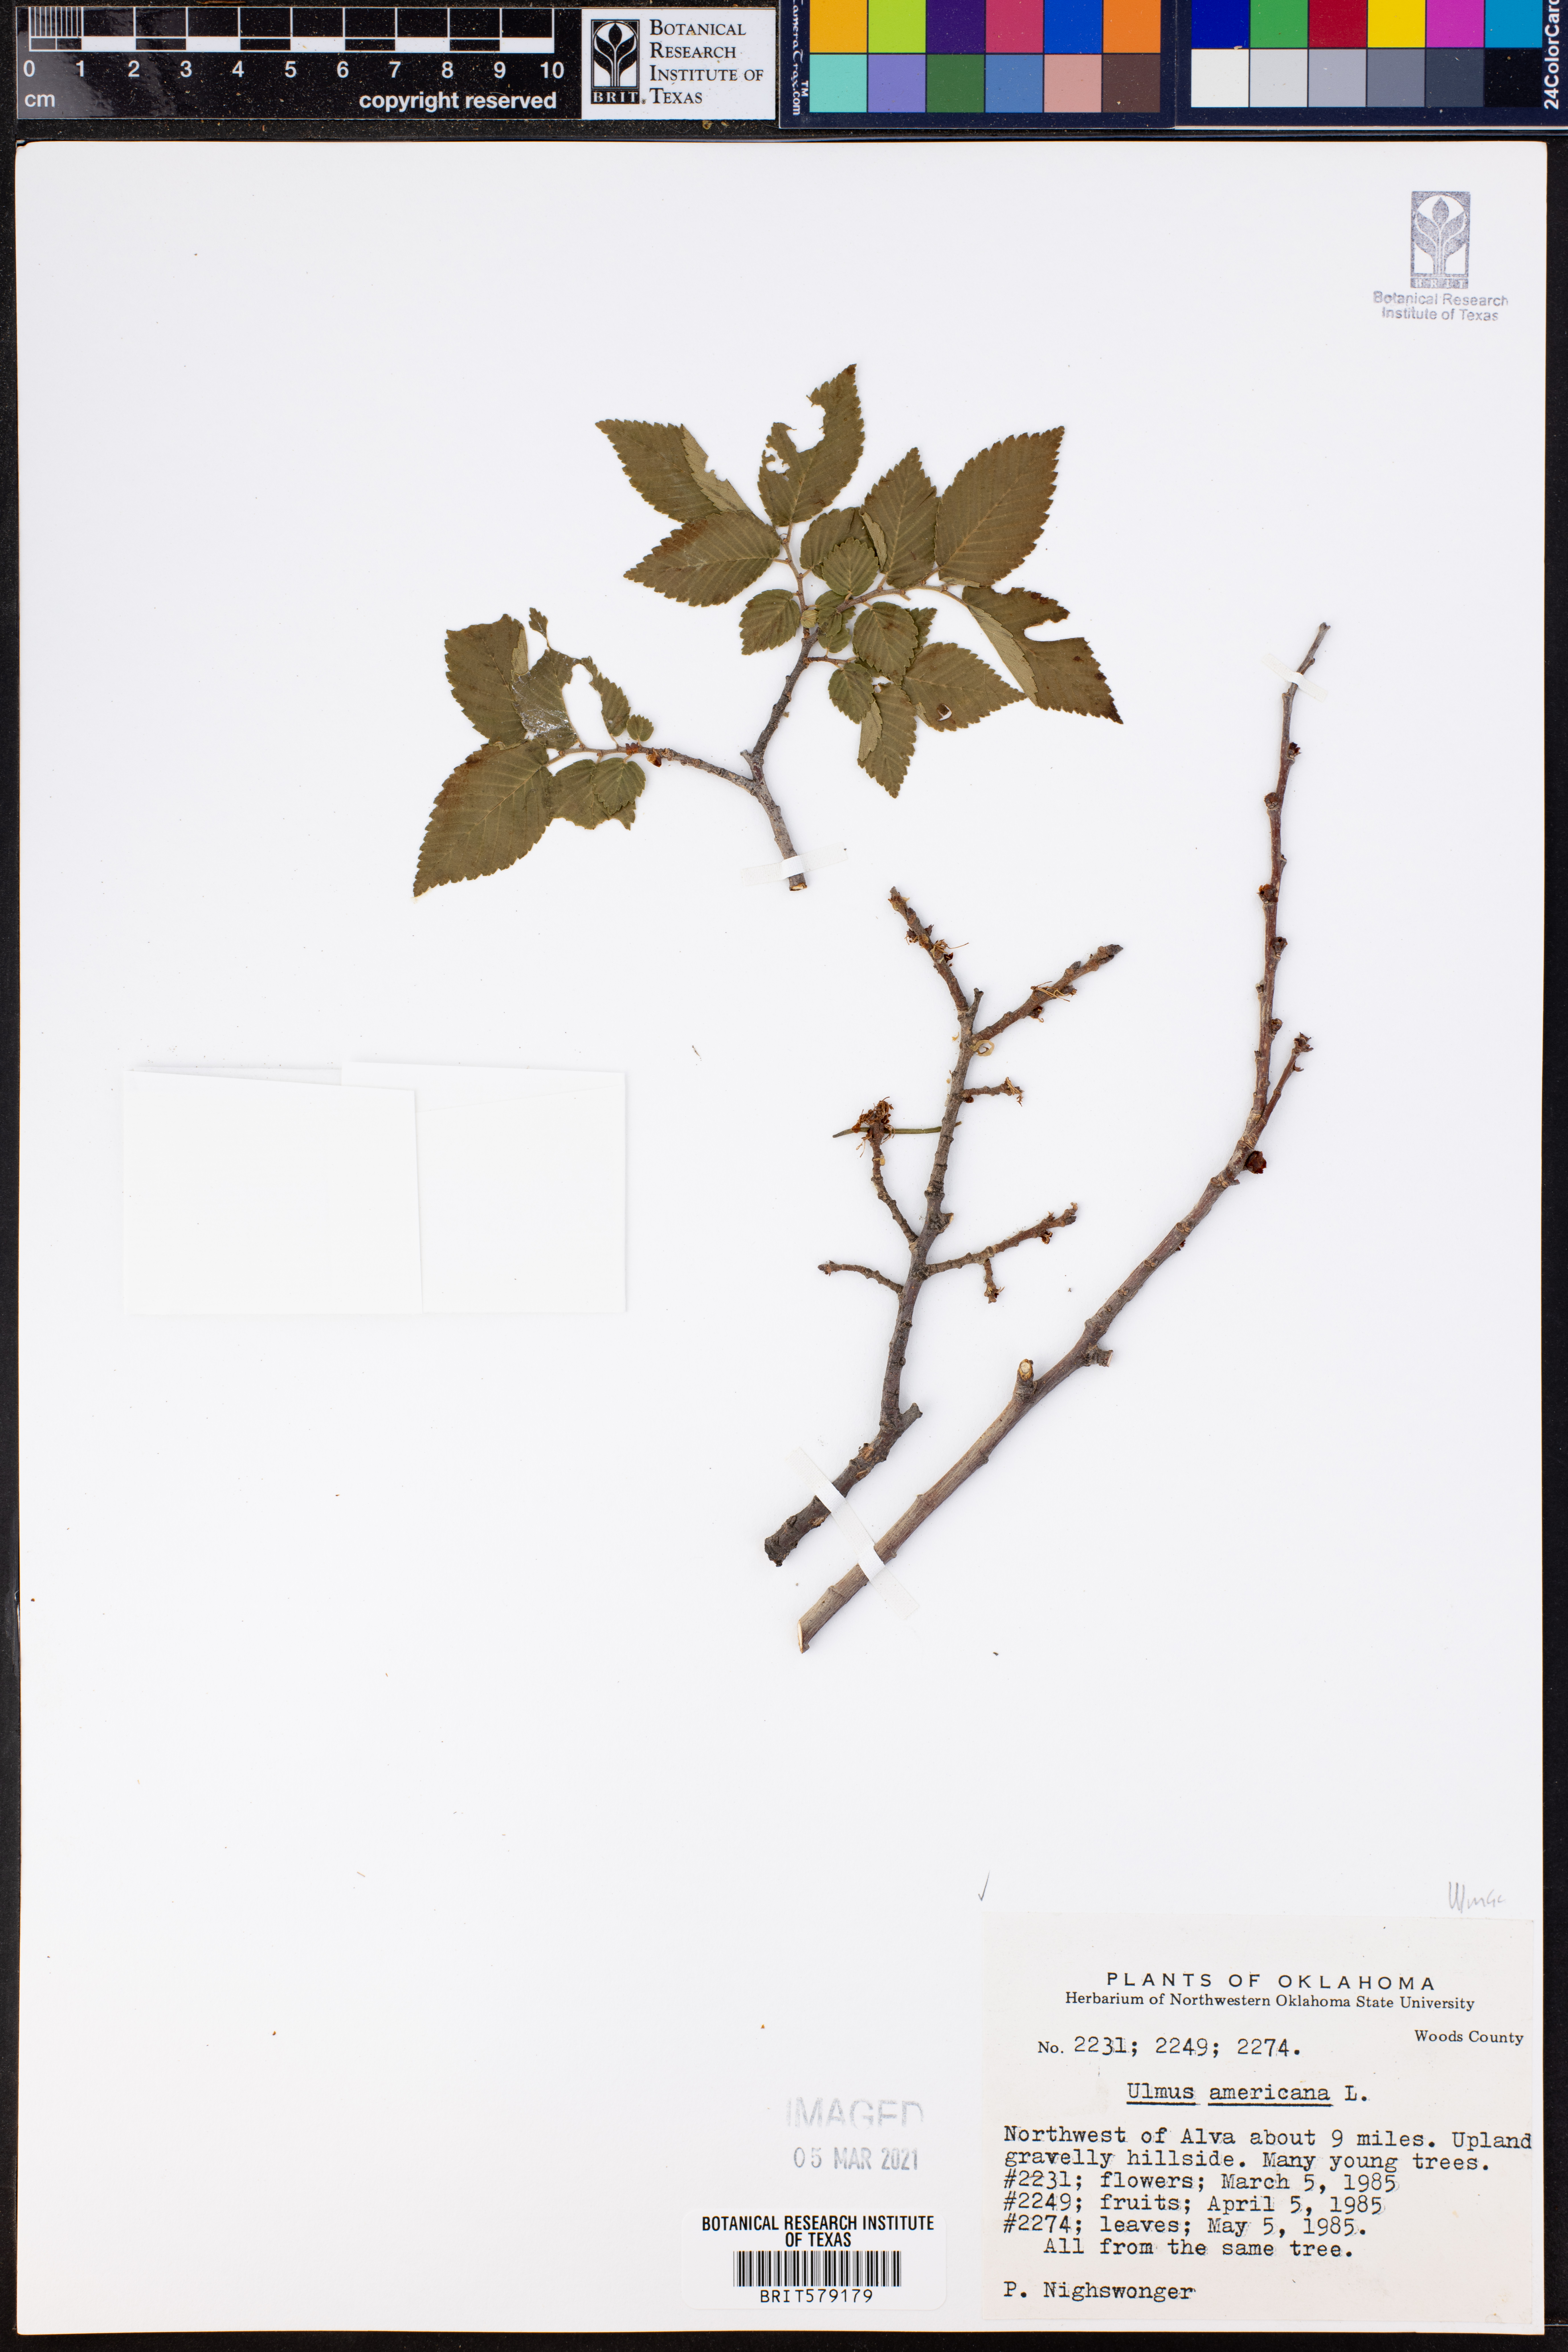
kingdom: Plantae
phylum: Tracheophyta
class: Magnoliopsida
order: Rosales
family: Ulmaceae
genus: Ulmus
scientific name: Ulmus americana
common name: American elm
